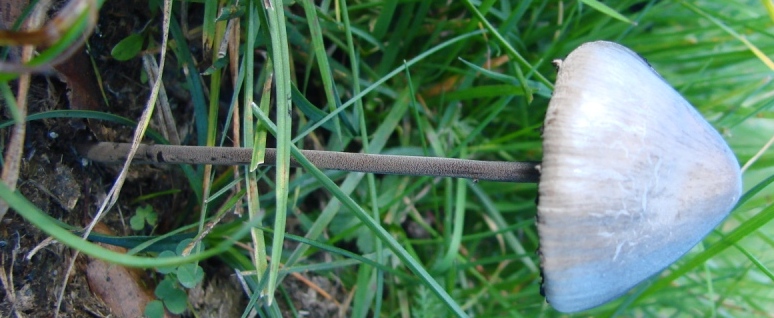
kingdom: Fungi
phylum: Basidiomycota
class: Agaricomycetes
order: Agaricales
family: Bolbitiaceae
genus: Panaeolus
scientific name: Panaeolus papilionaceus
